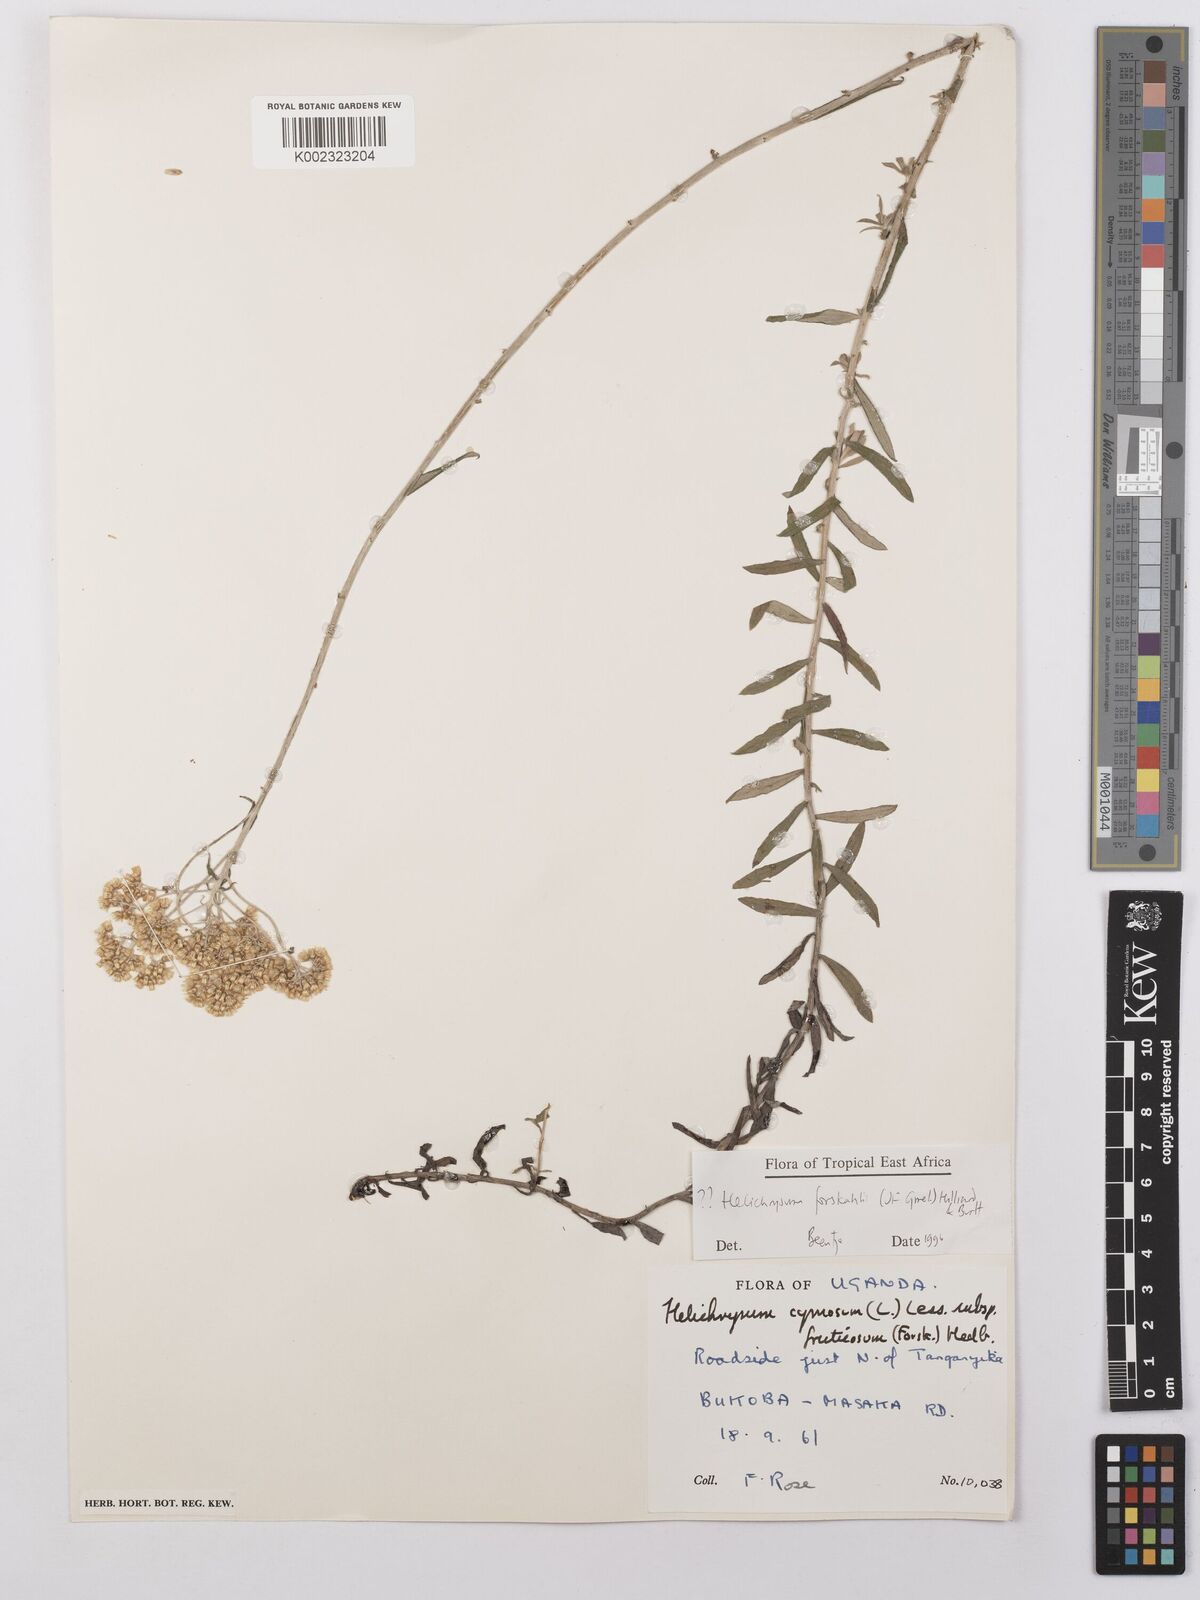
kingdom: Plantae
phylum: Tracheophyta
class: Magnoliopsida
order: Asterales
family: Asteraceae
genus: Helichrysum
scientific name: Helichrysum forskahlii
